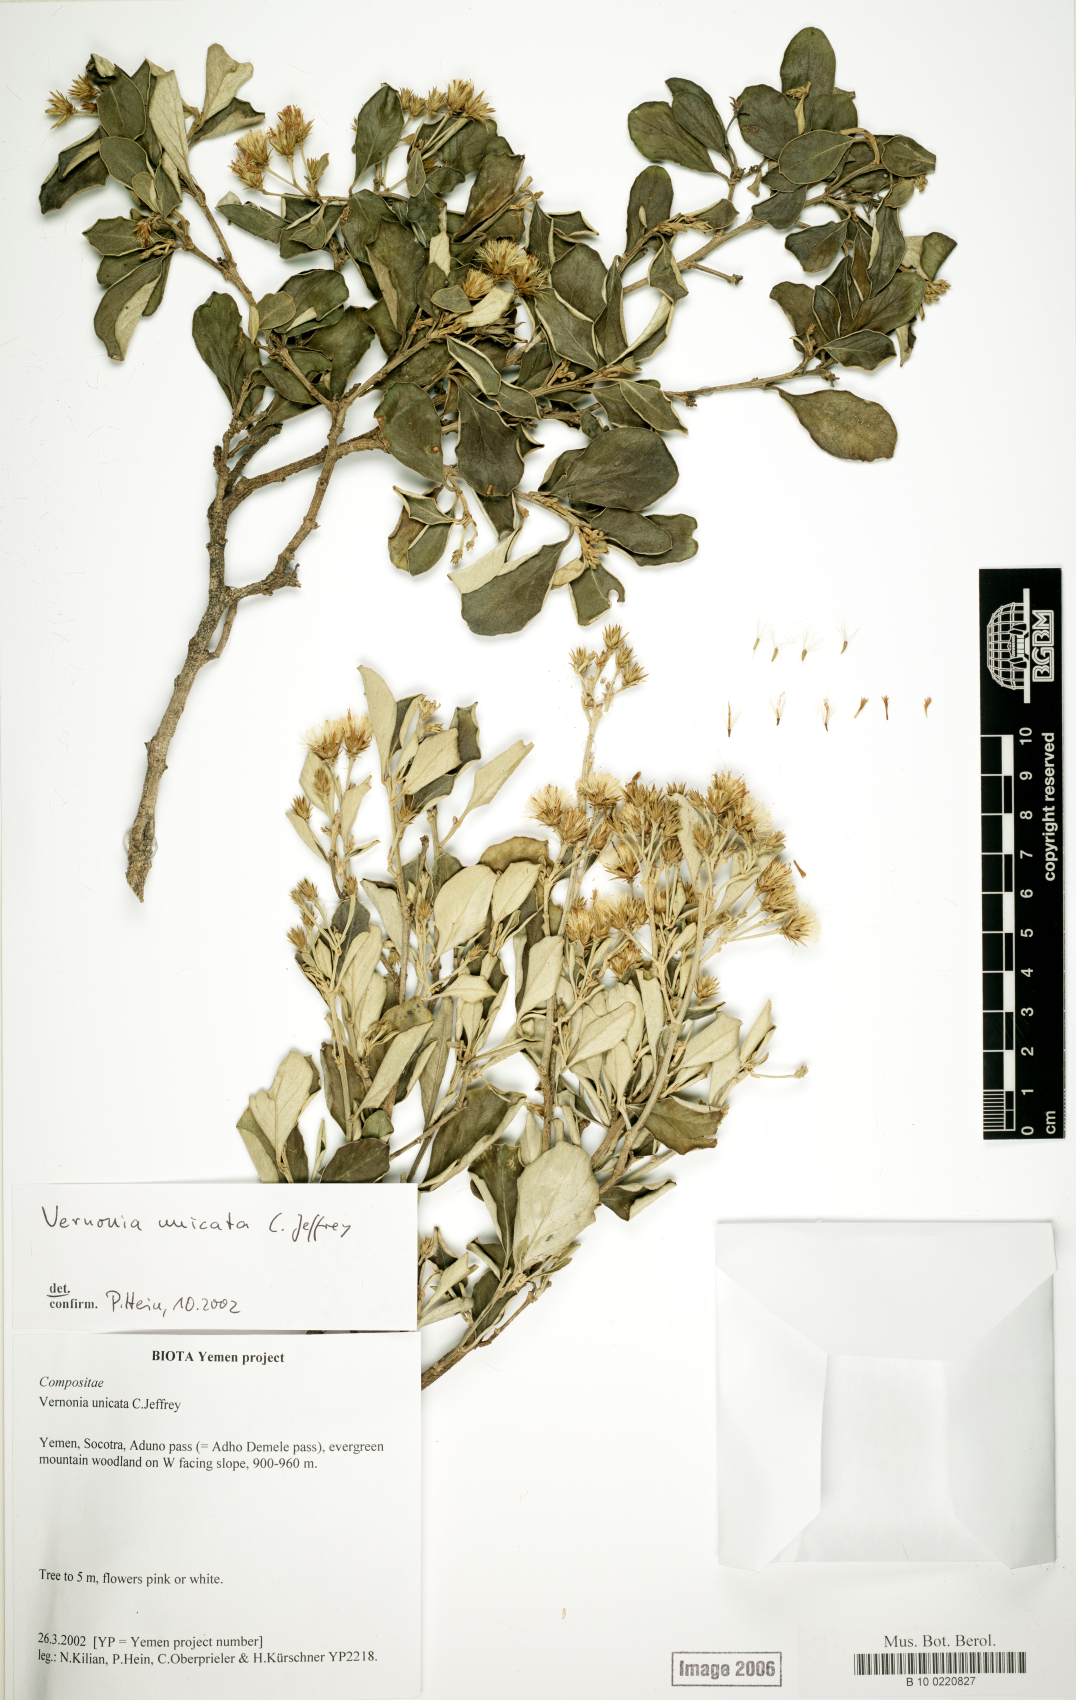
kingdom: Plantae
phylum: Tracheophyta
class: Magnoliopsida
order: Asterales
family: Asteraceae
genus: Vernonia
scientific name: Vernonia unicata
